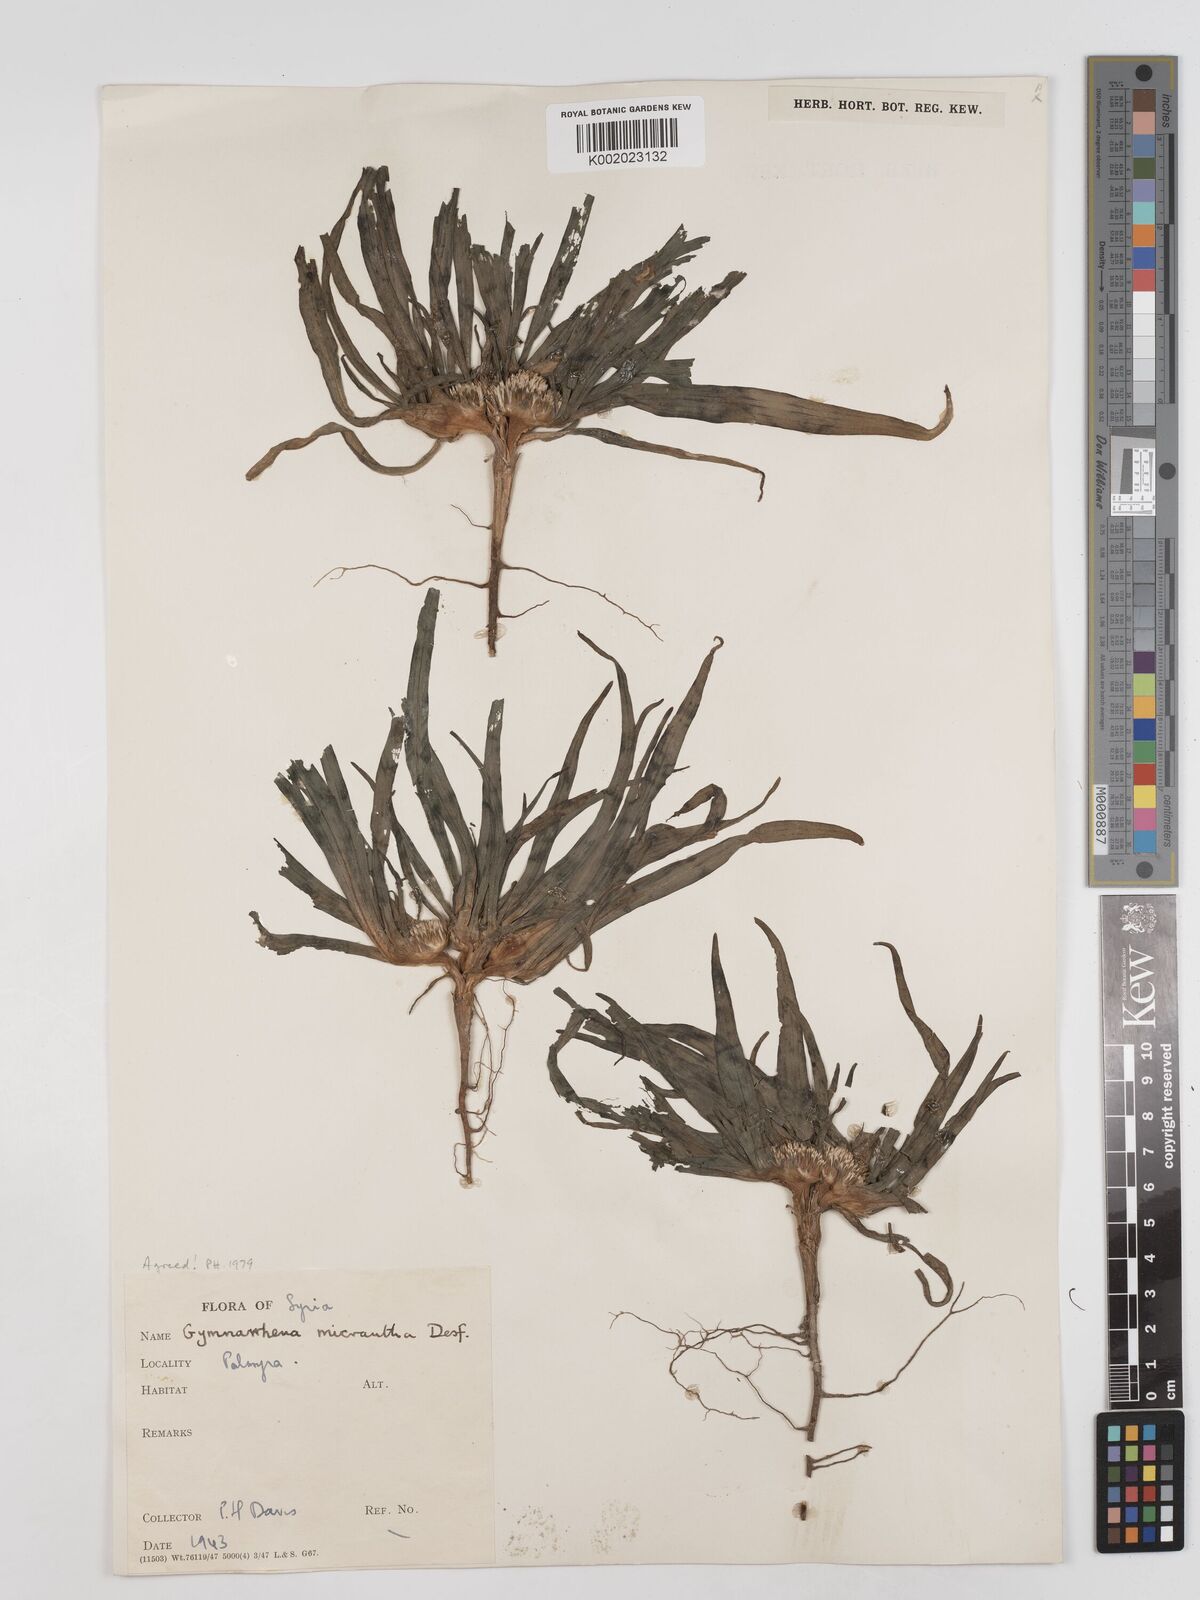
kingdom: Plantae
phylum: Tracheophyta
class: Magnoliopsida
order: Asterales
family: Asteraceae
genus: Gymnarrhena
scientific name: Gymnarrhena micrantha
